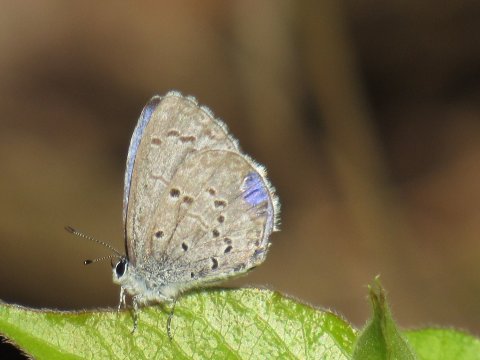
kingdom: Animalia
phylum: Arthropoda
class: Insecta
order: Lepidoptera
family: Lycaenidae
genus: Celastrina
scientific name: Celastrina ladon
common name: Spring Azure
